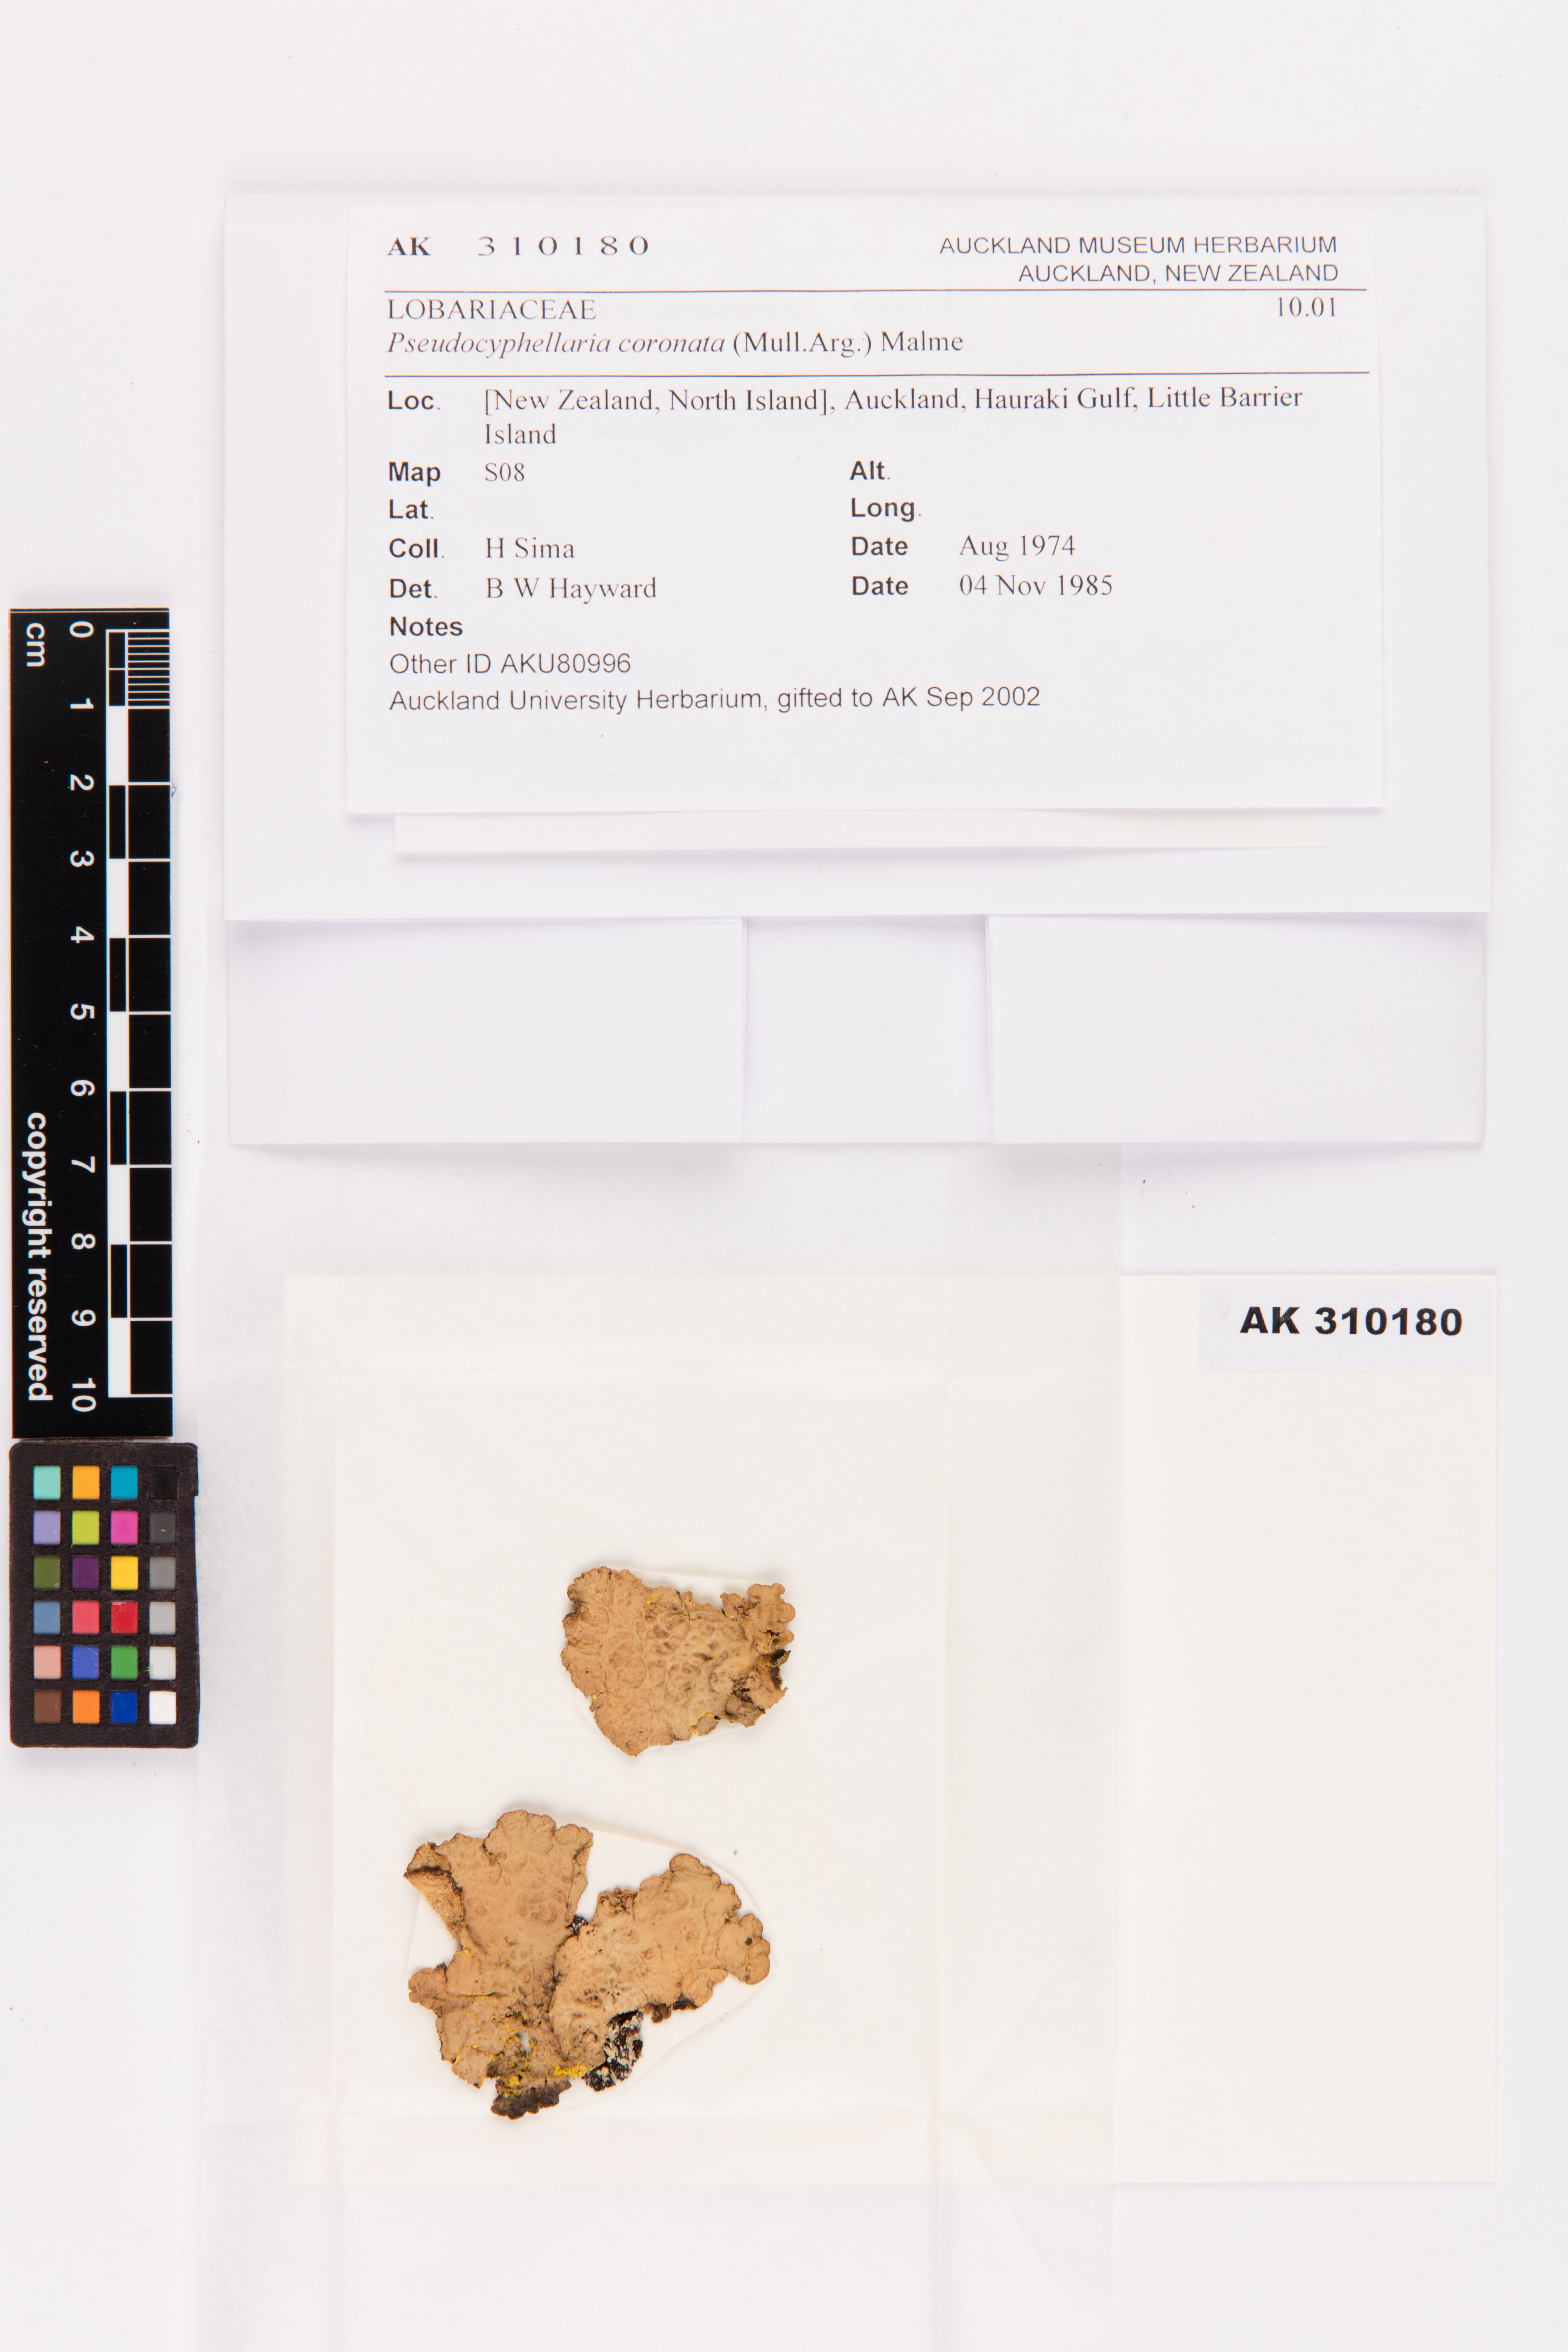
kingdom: Fungi
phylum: Ascomycota
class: Lecanoromycetes
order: Peltigerales
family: Lobariaceae
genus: Yarrumia
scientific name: Yarrumia coronata
